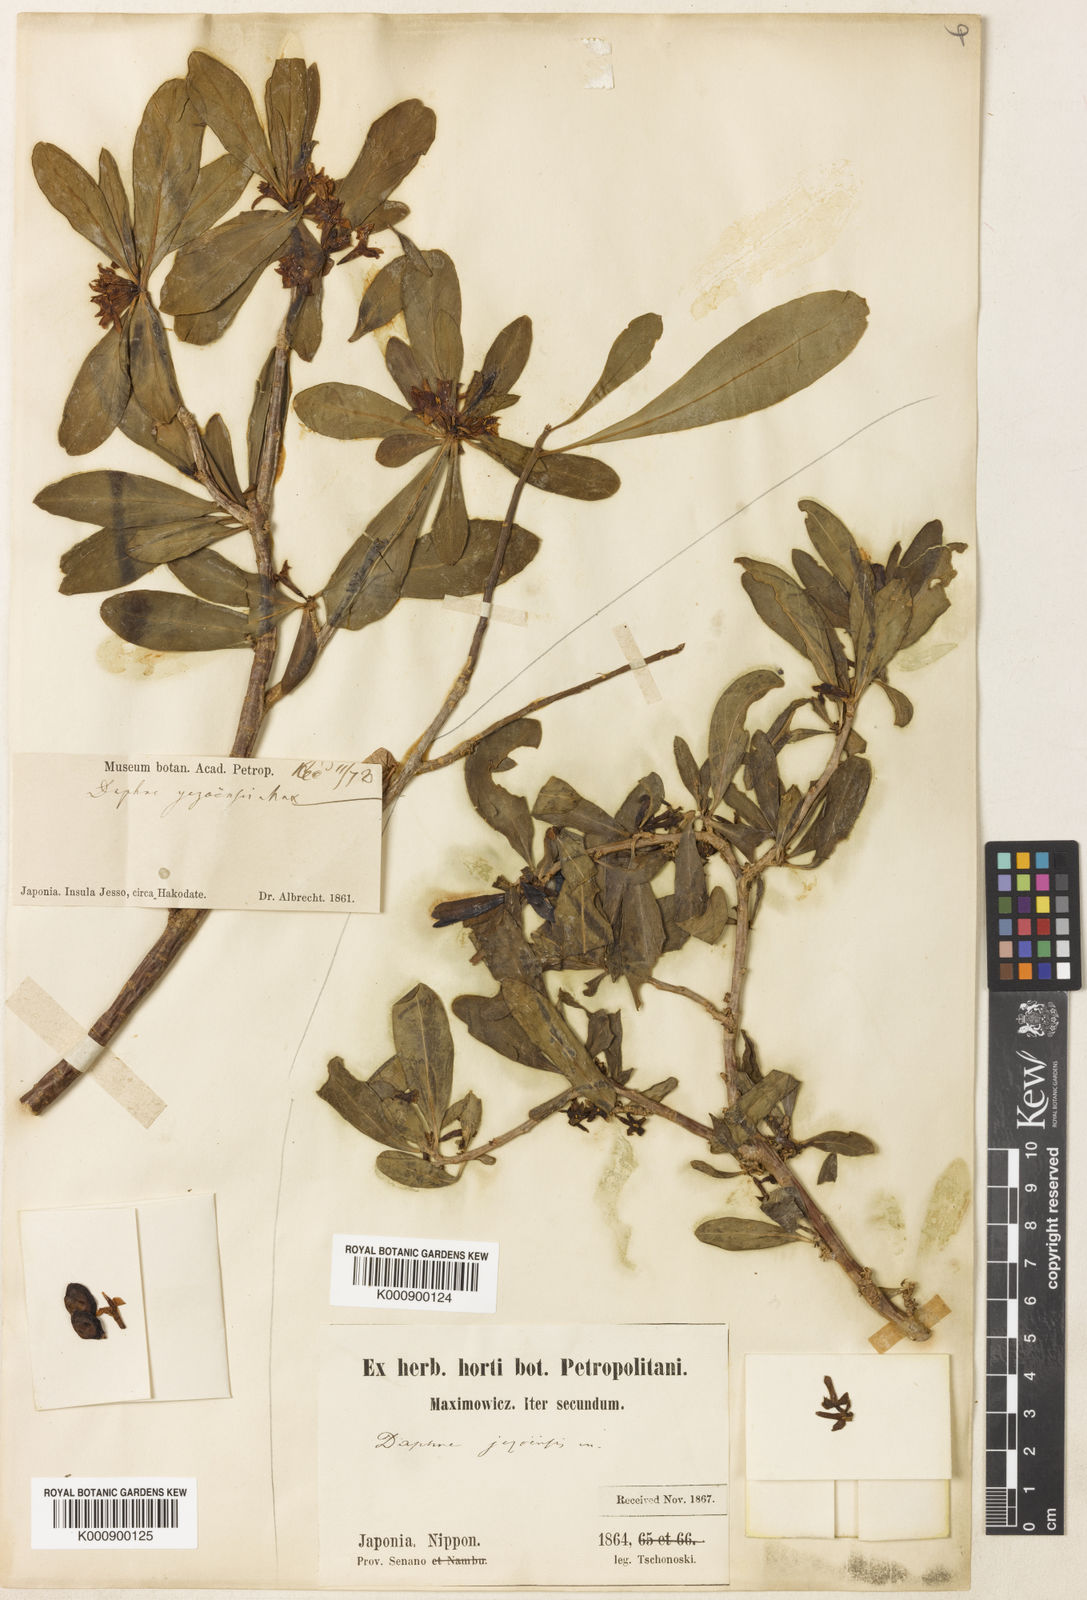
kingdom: Plantae
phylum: Tracheophyta
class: Magnoliopsida
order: Malvales
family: Thymelaeaceae
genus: Daphne
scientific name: Daphne jezoensis
